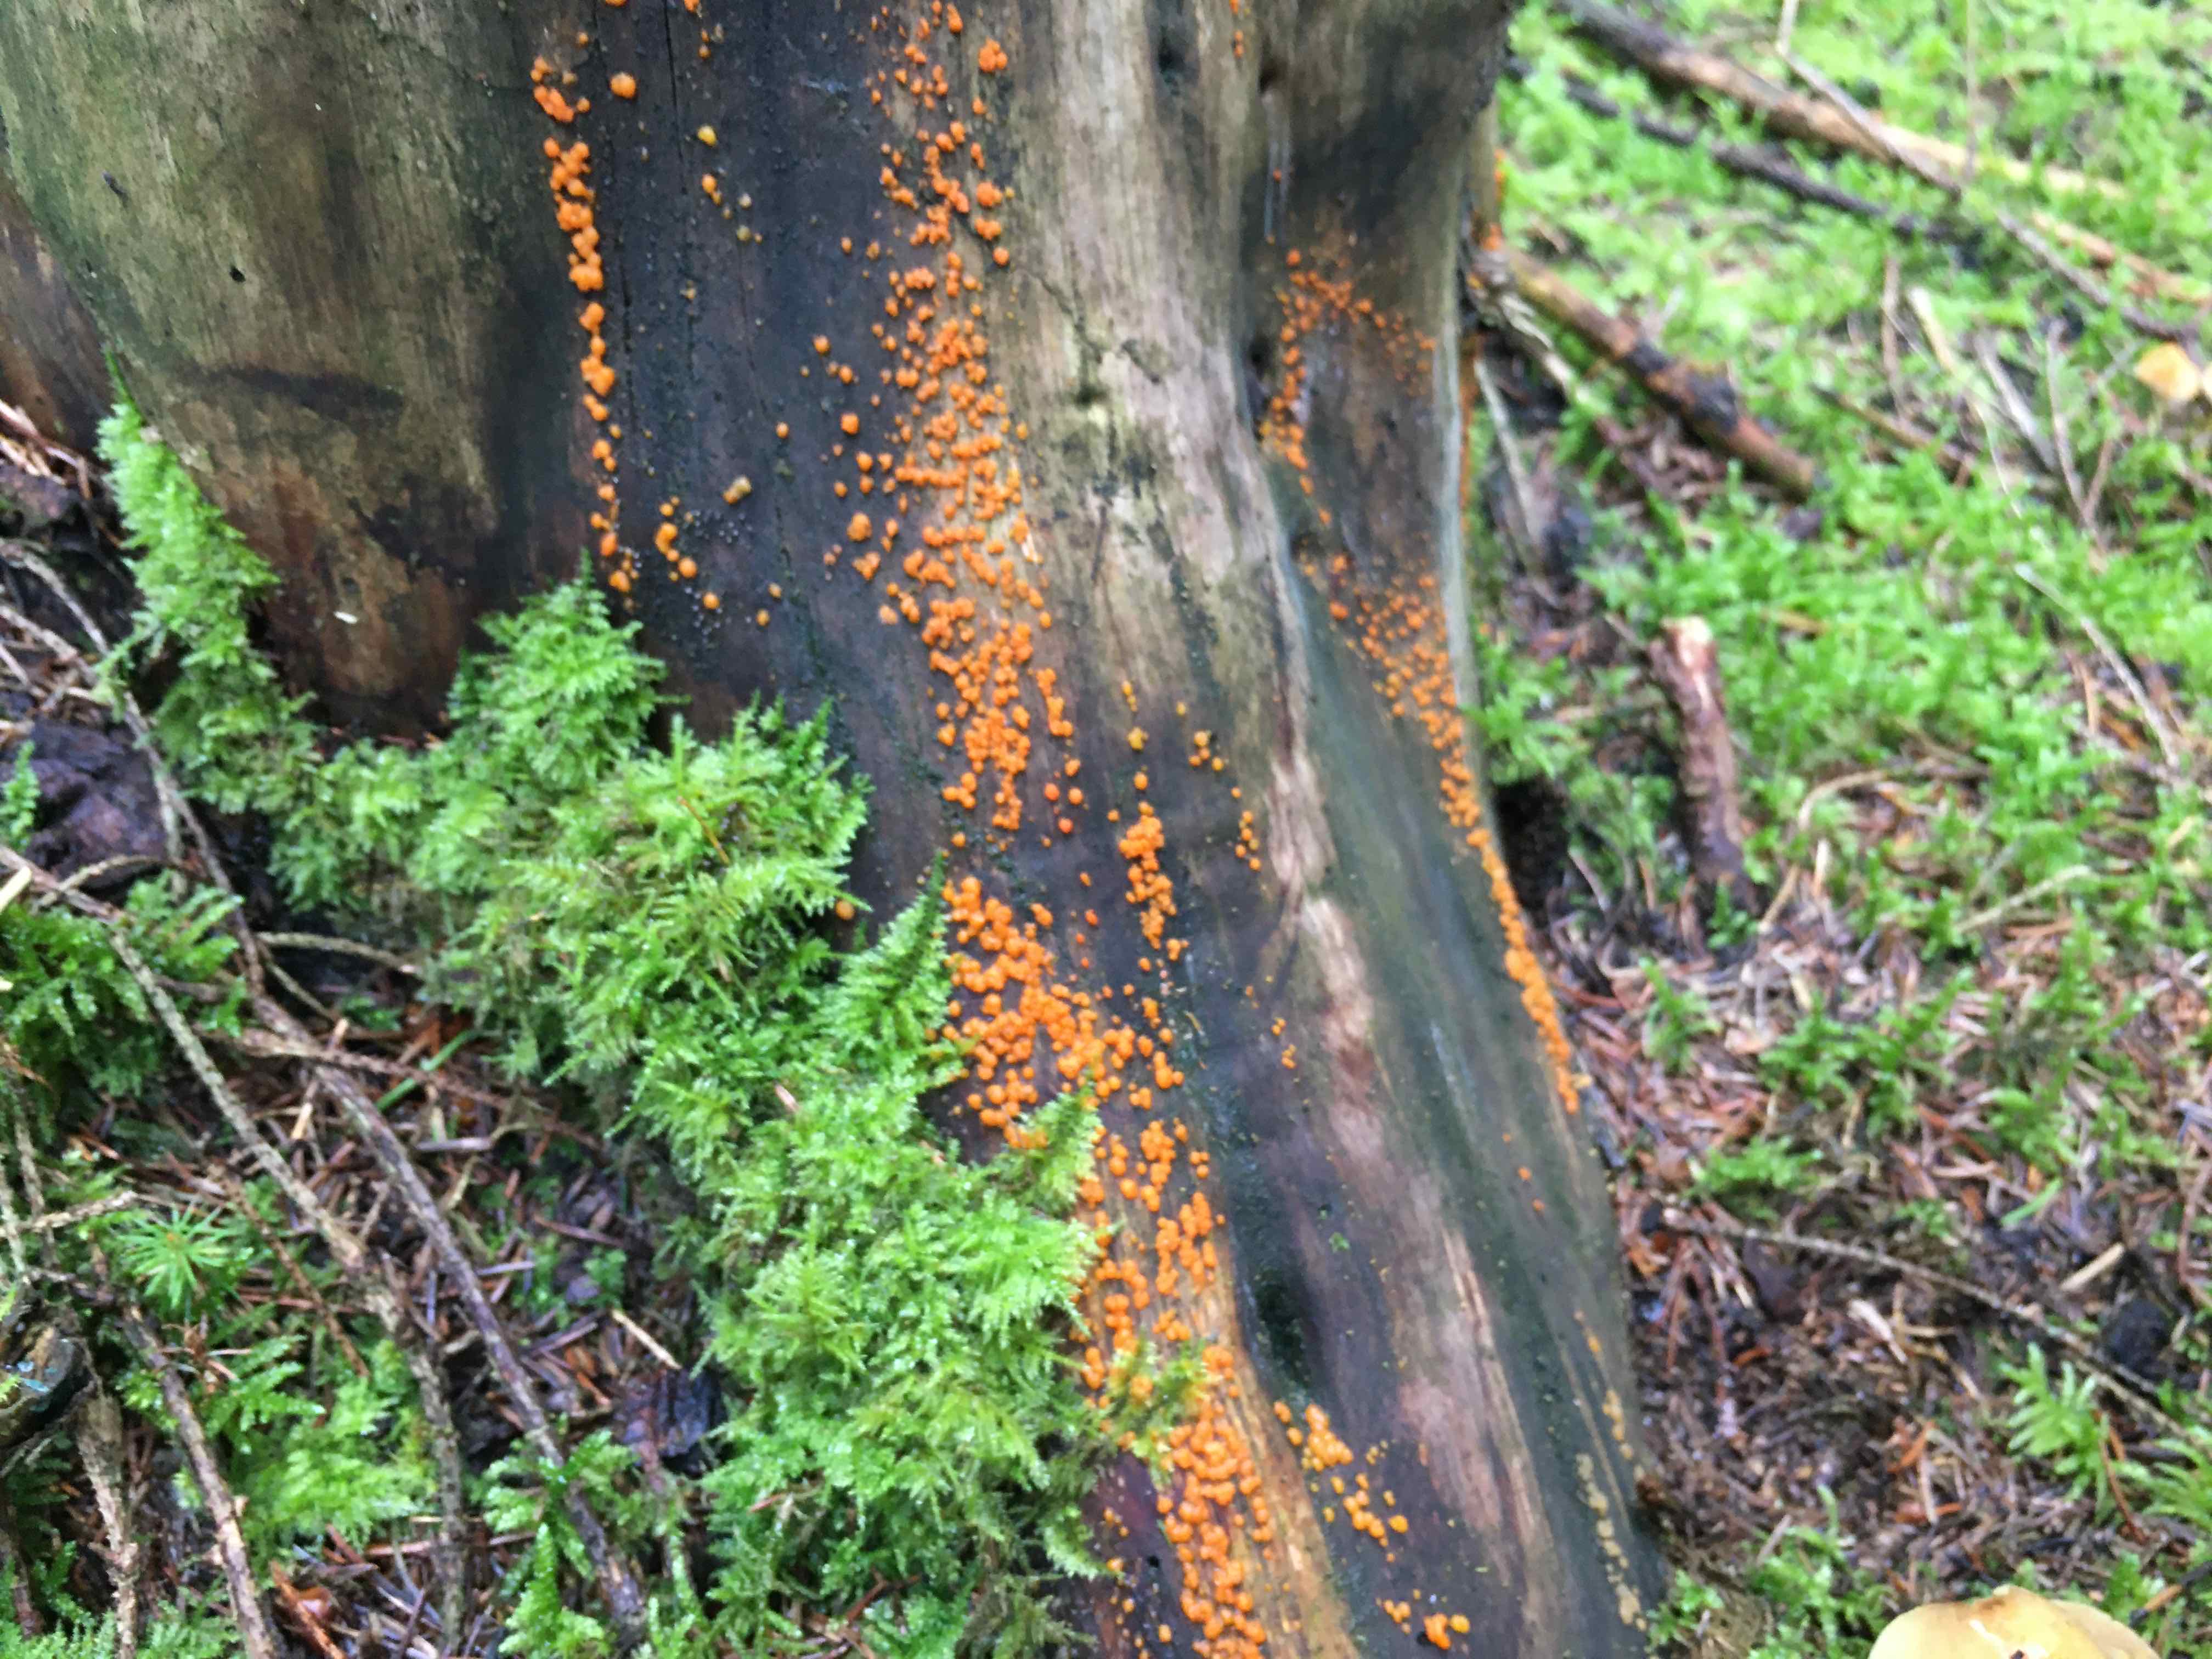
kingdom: Fungi
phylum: Basidiomycota
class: Dacrymycetes
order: Dacrymycetales
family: Dacrymycetaceae
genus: Dacrymyces
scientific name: Dacrymyces stillatus
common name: almindelig tåresvamp
